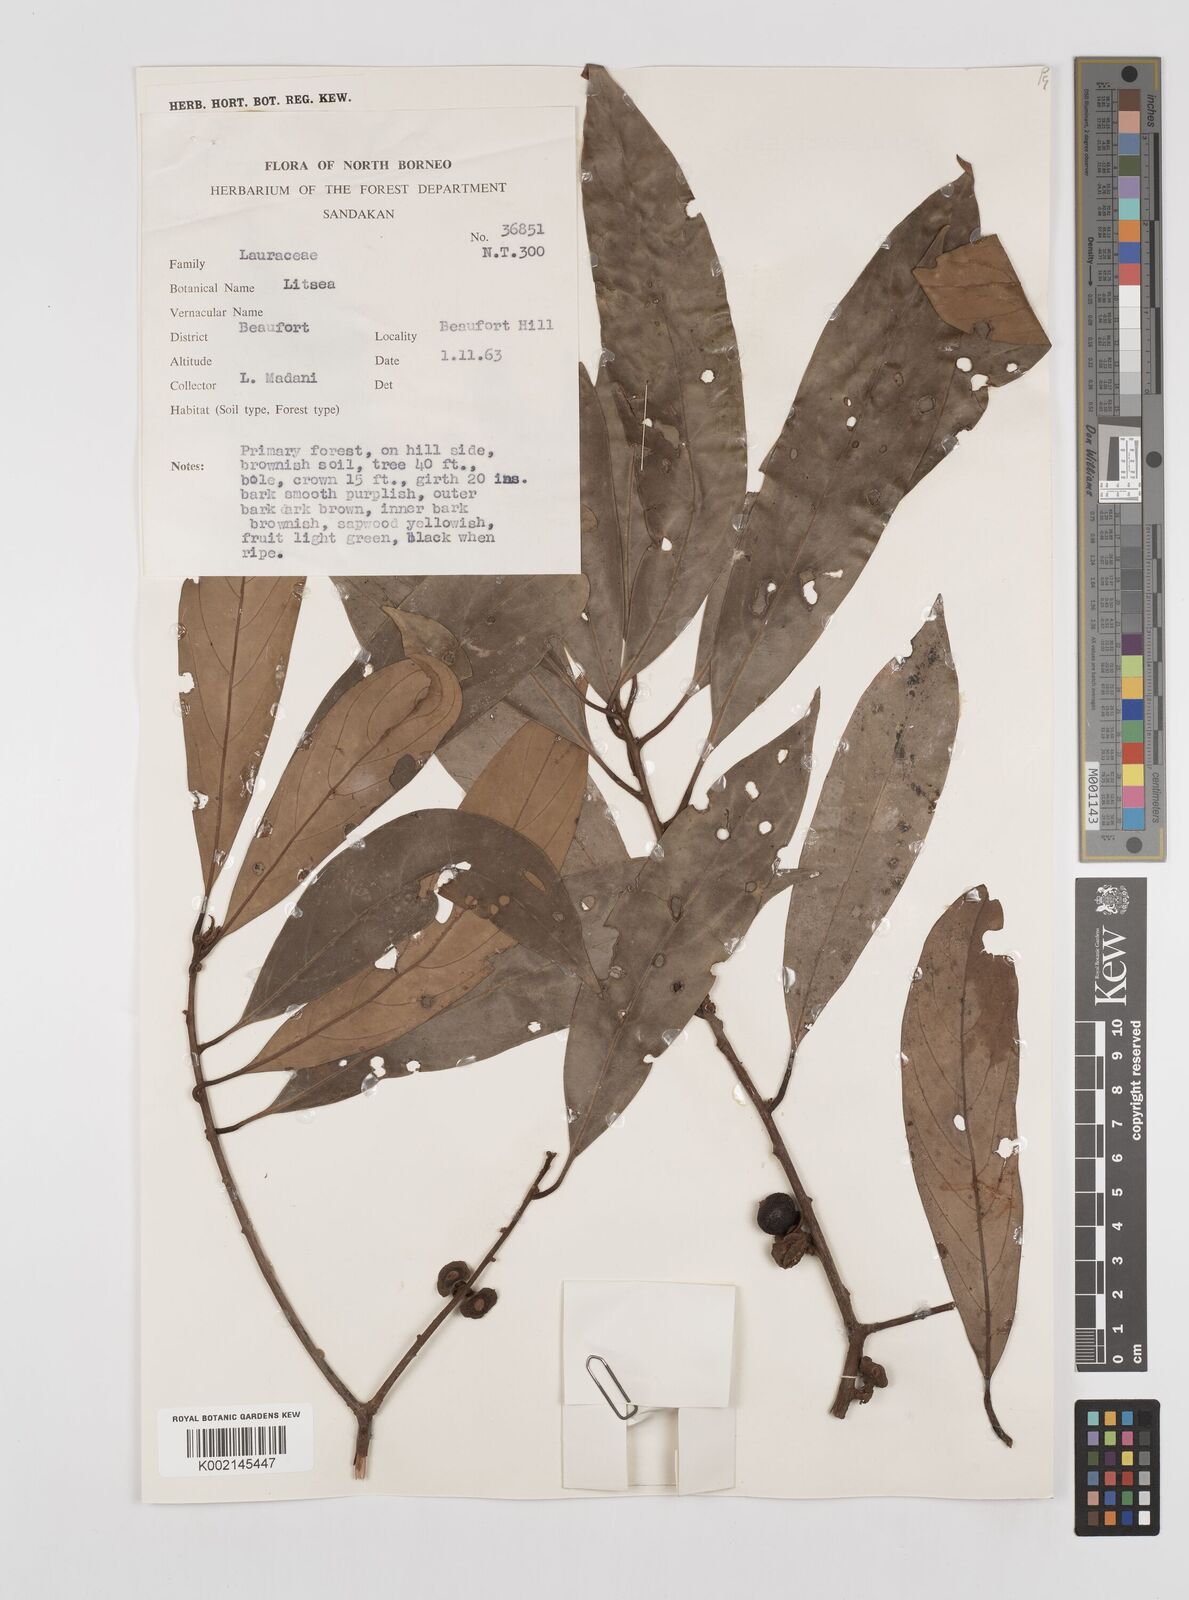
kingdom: Plantae
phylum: Tracheophyta
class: Magnoliopsida
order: Laurales
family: Lauraceae
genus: Litsea
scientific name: Litsea
